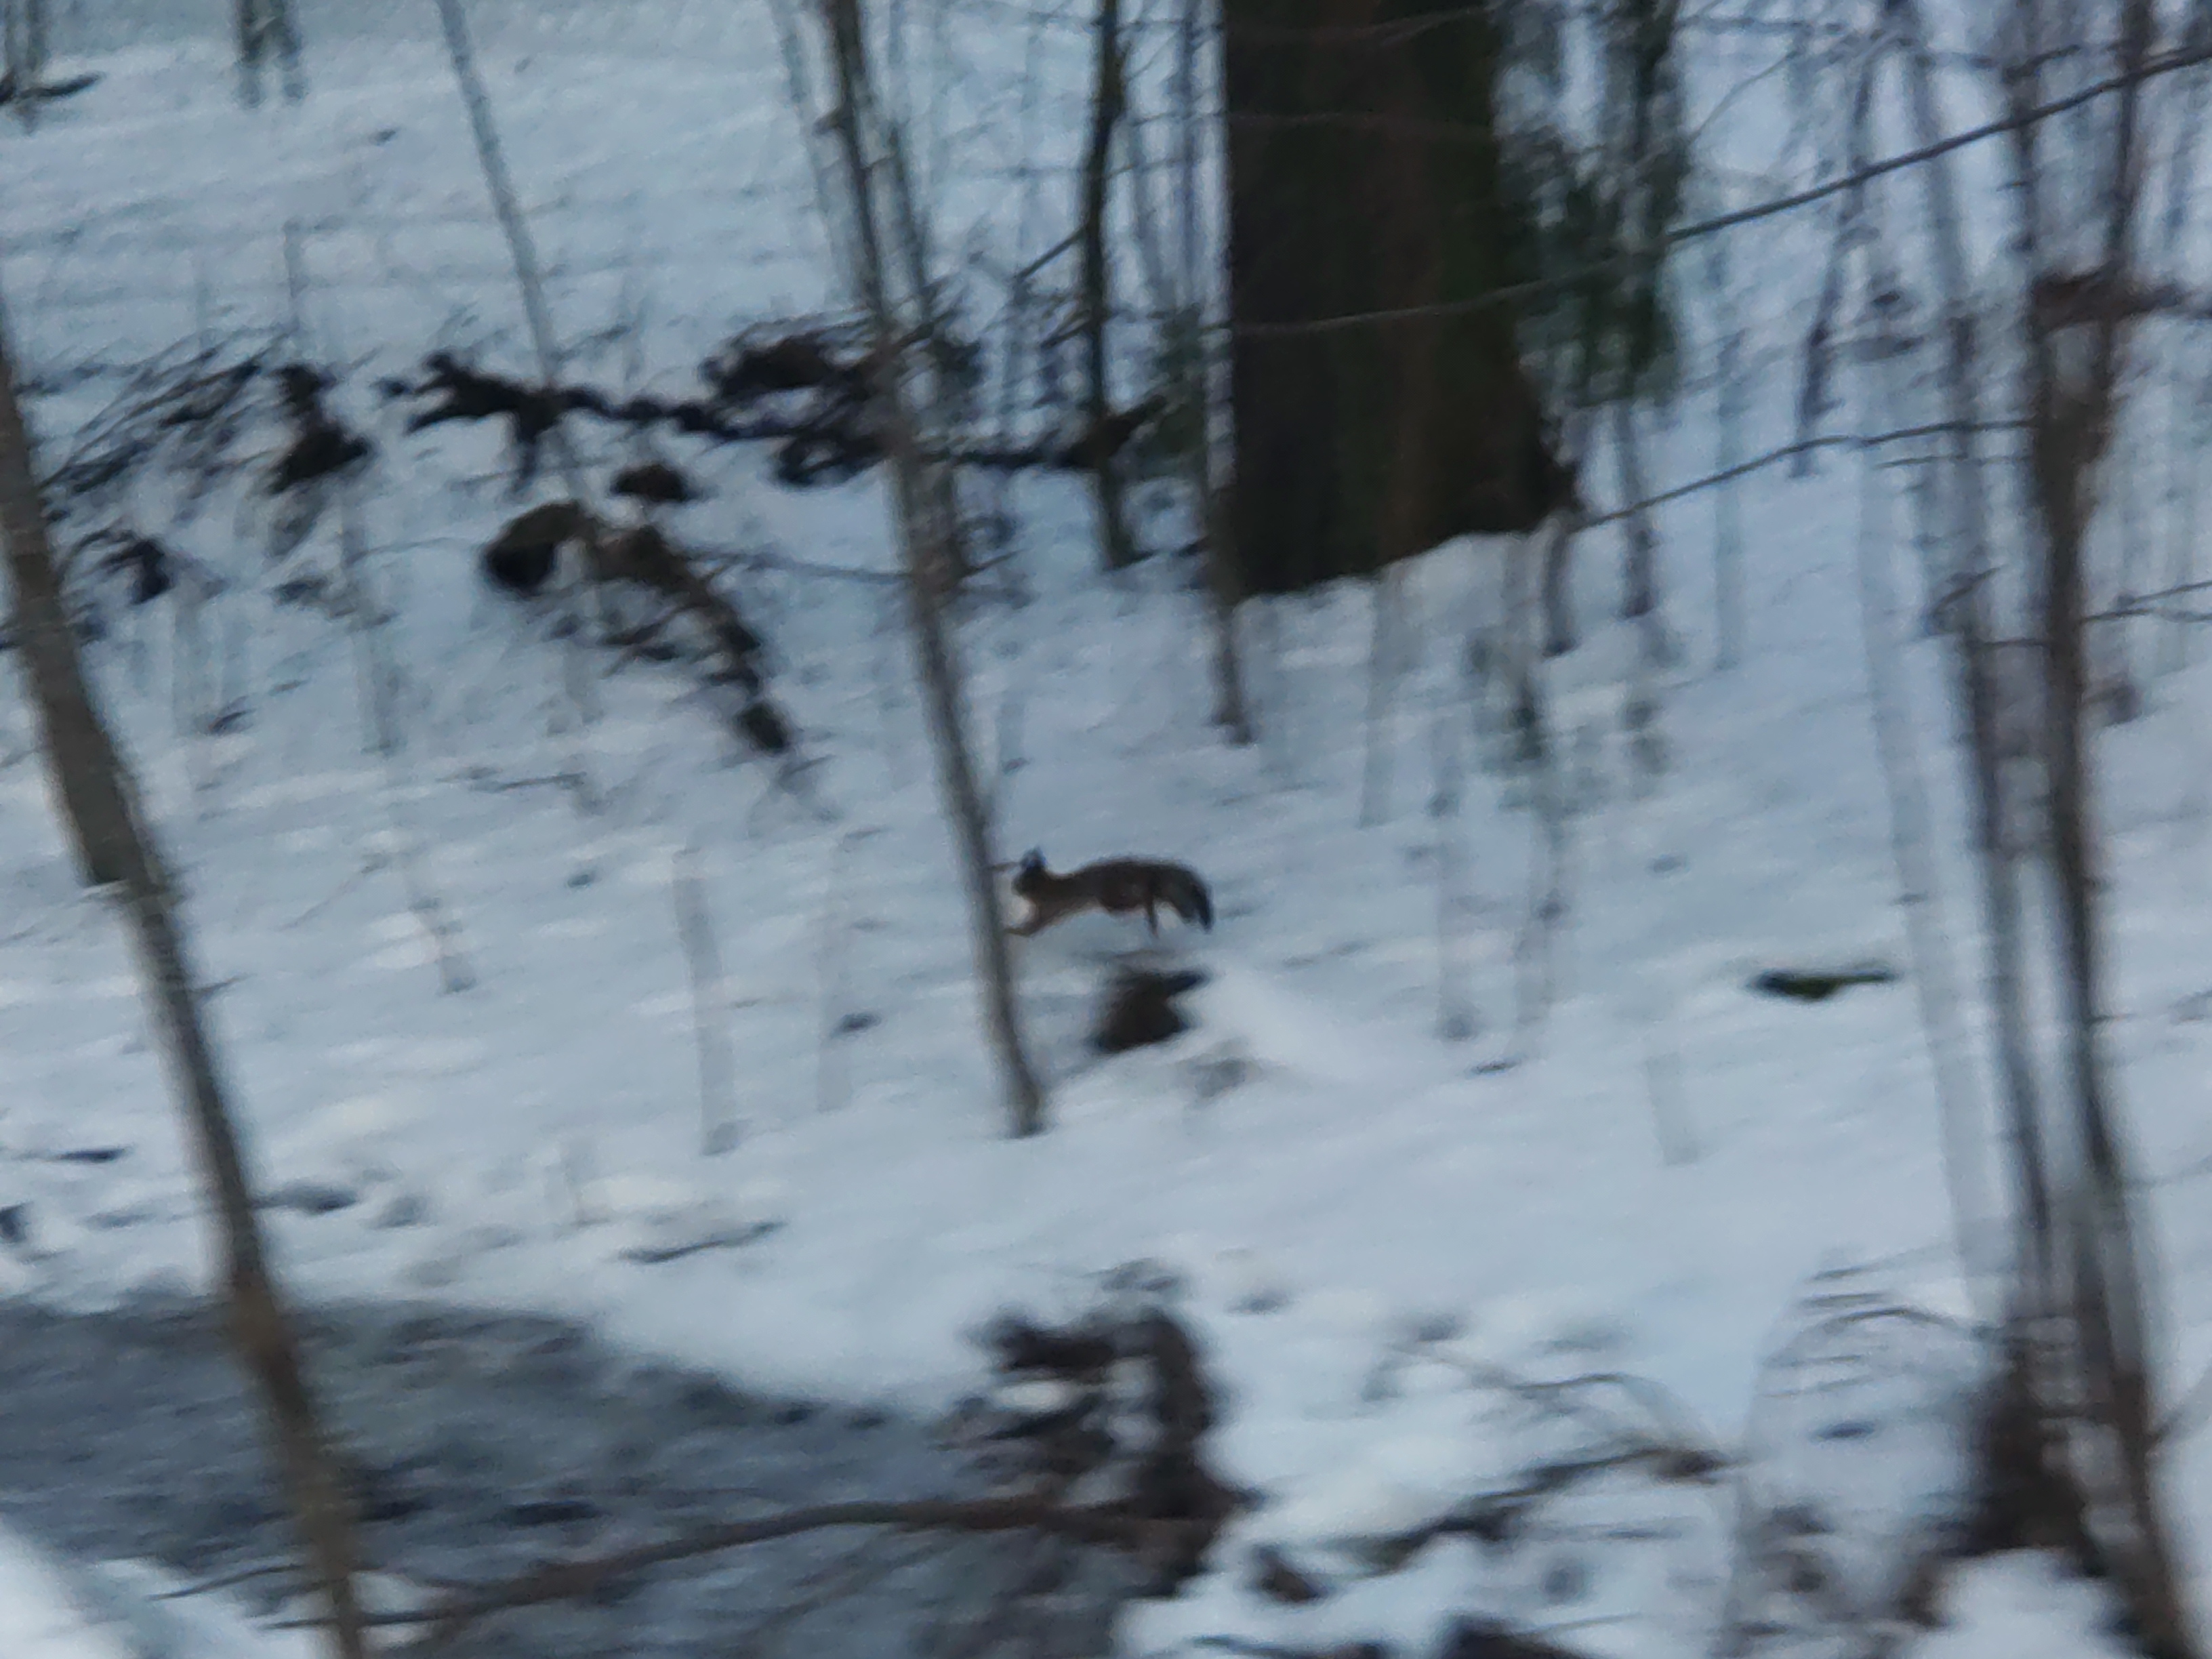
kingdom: Animalia
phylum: Chordata
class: Mammalia
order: Rodentia
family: Sciuridae
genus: Sciurus
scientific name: Sciurus vulgaris
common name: Eurasian red squirrel
